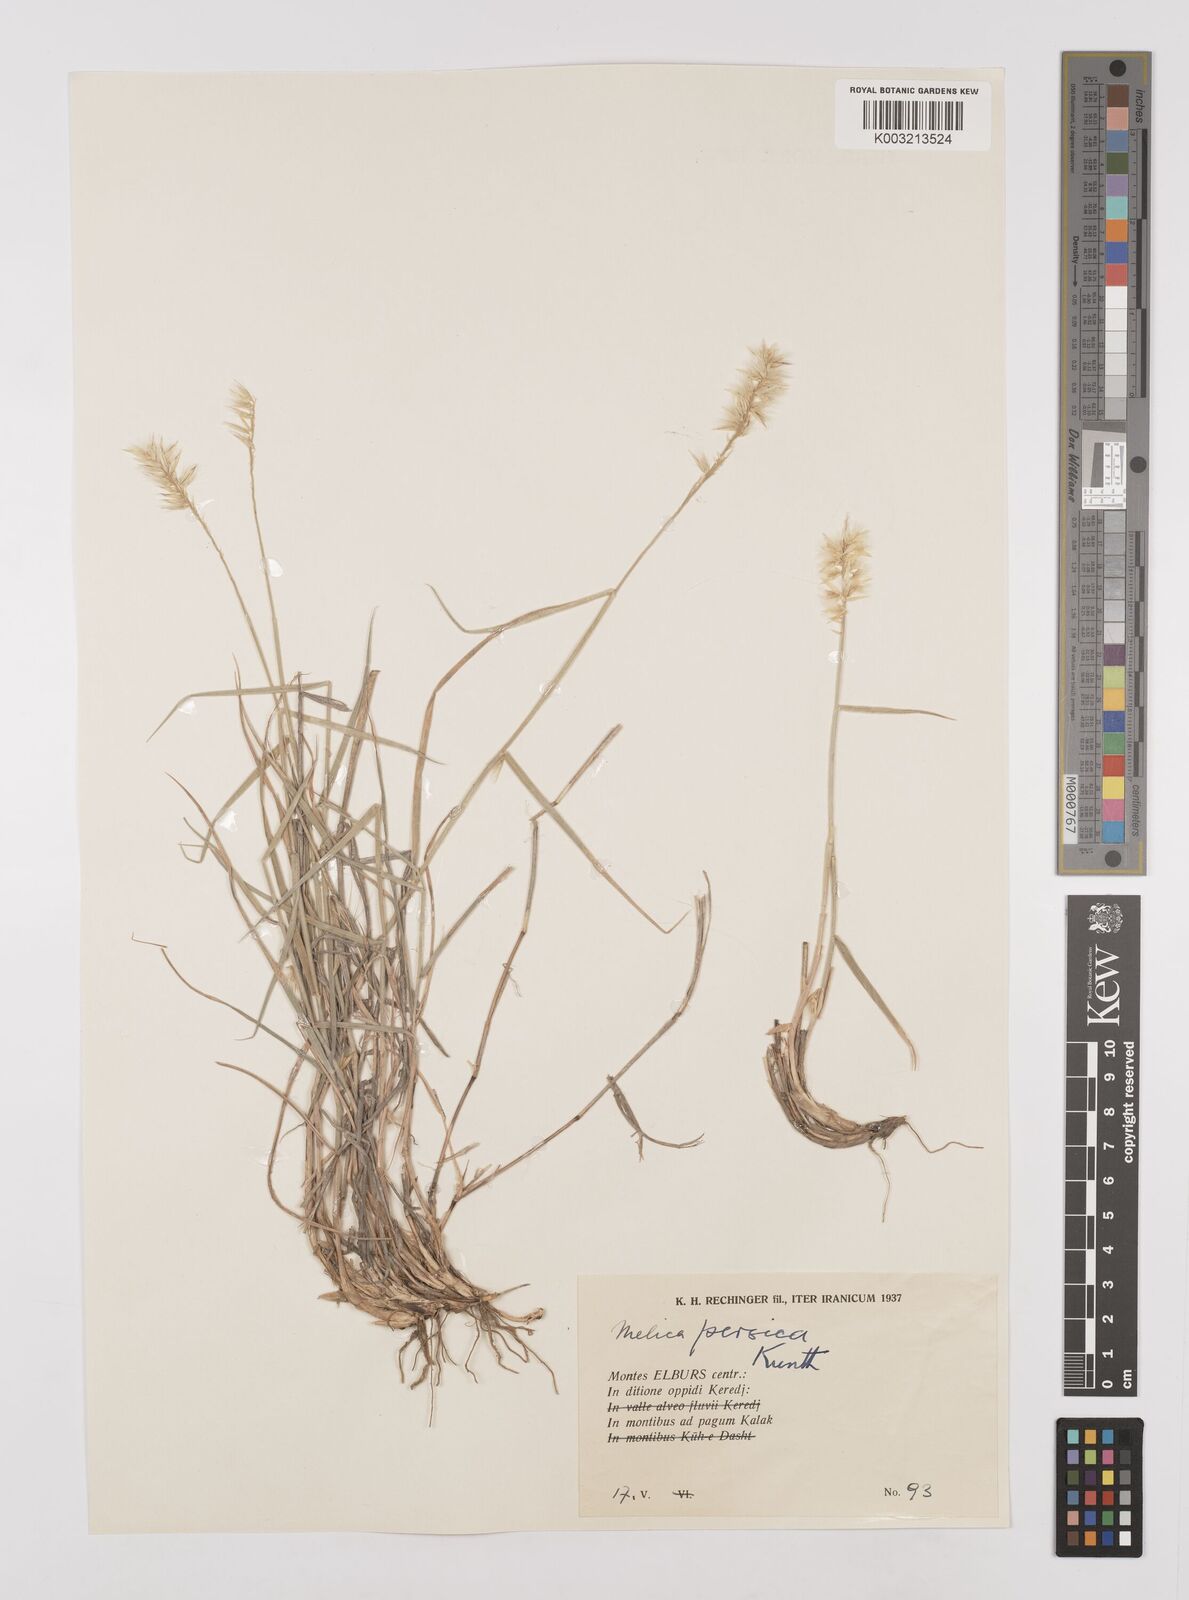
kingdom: Plantae
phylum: Tracheophyta
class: Liliopsida
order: Poales
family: Poaceae
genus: Melica
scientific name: Melica persica
